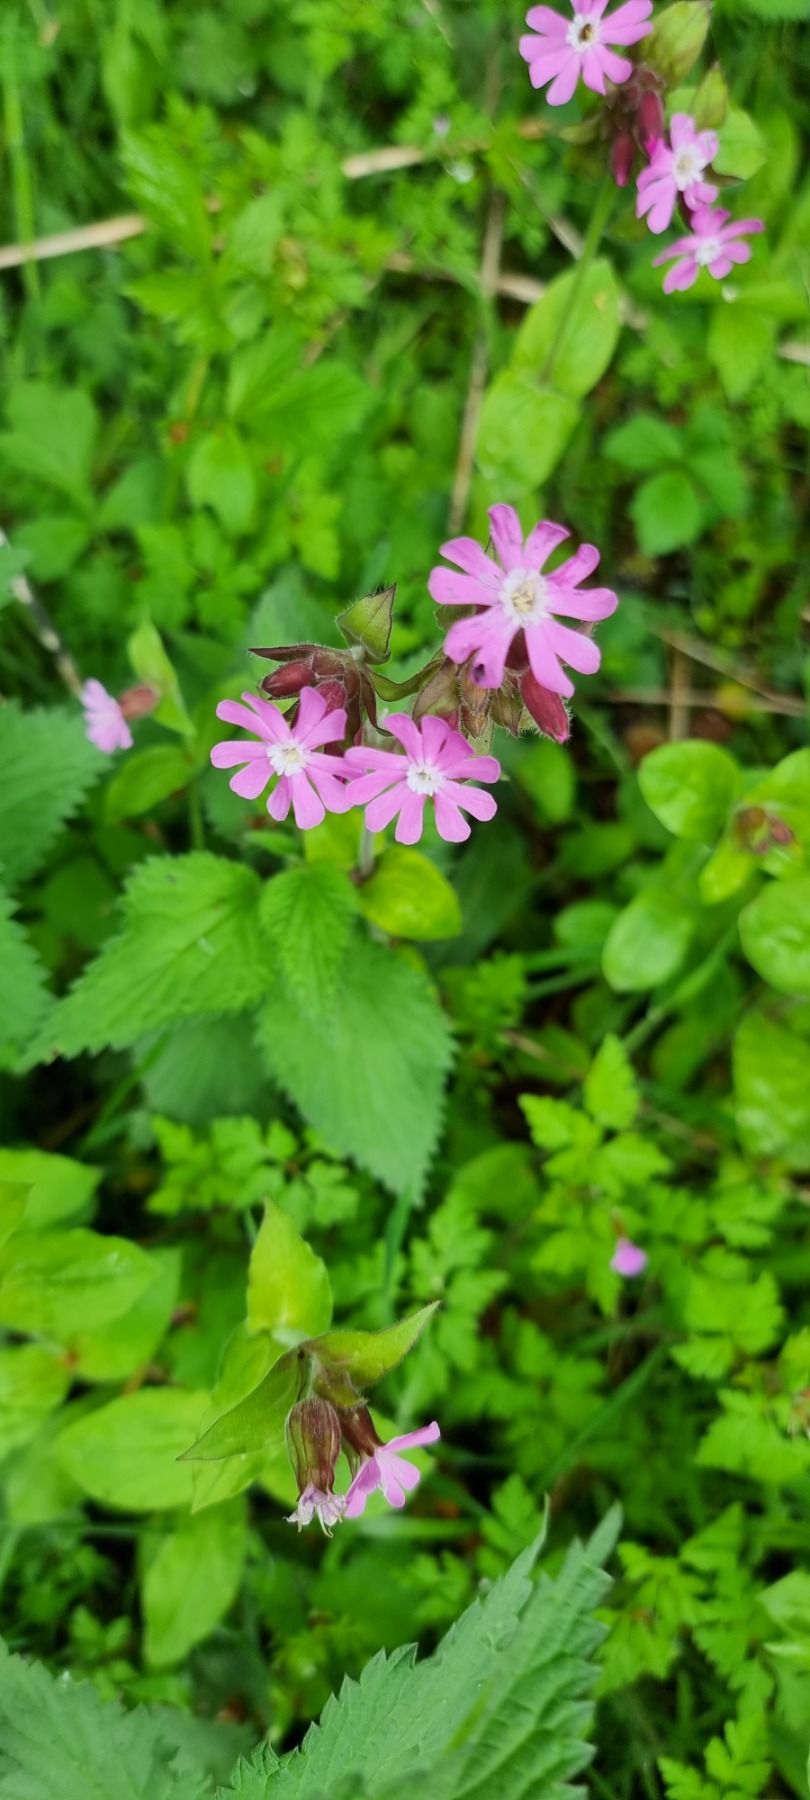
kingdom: Plantae
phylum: Tracheophyta
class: Magnoliopsida
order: Caryophyllales
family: Caryophyllaceae
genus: Silene
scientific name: Silene dioica
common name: Dagpragtstjerne
